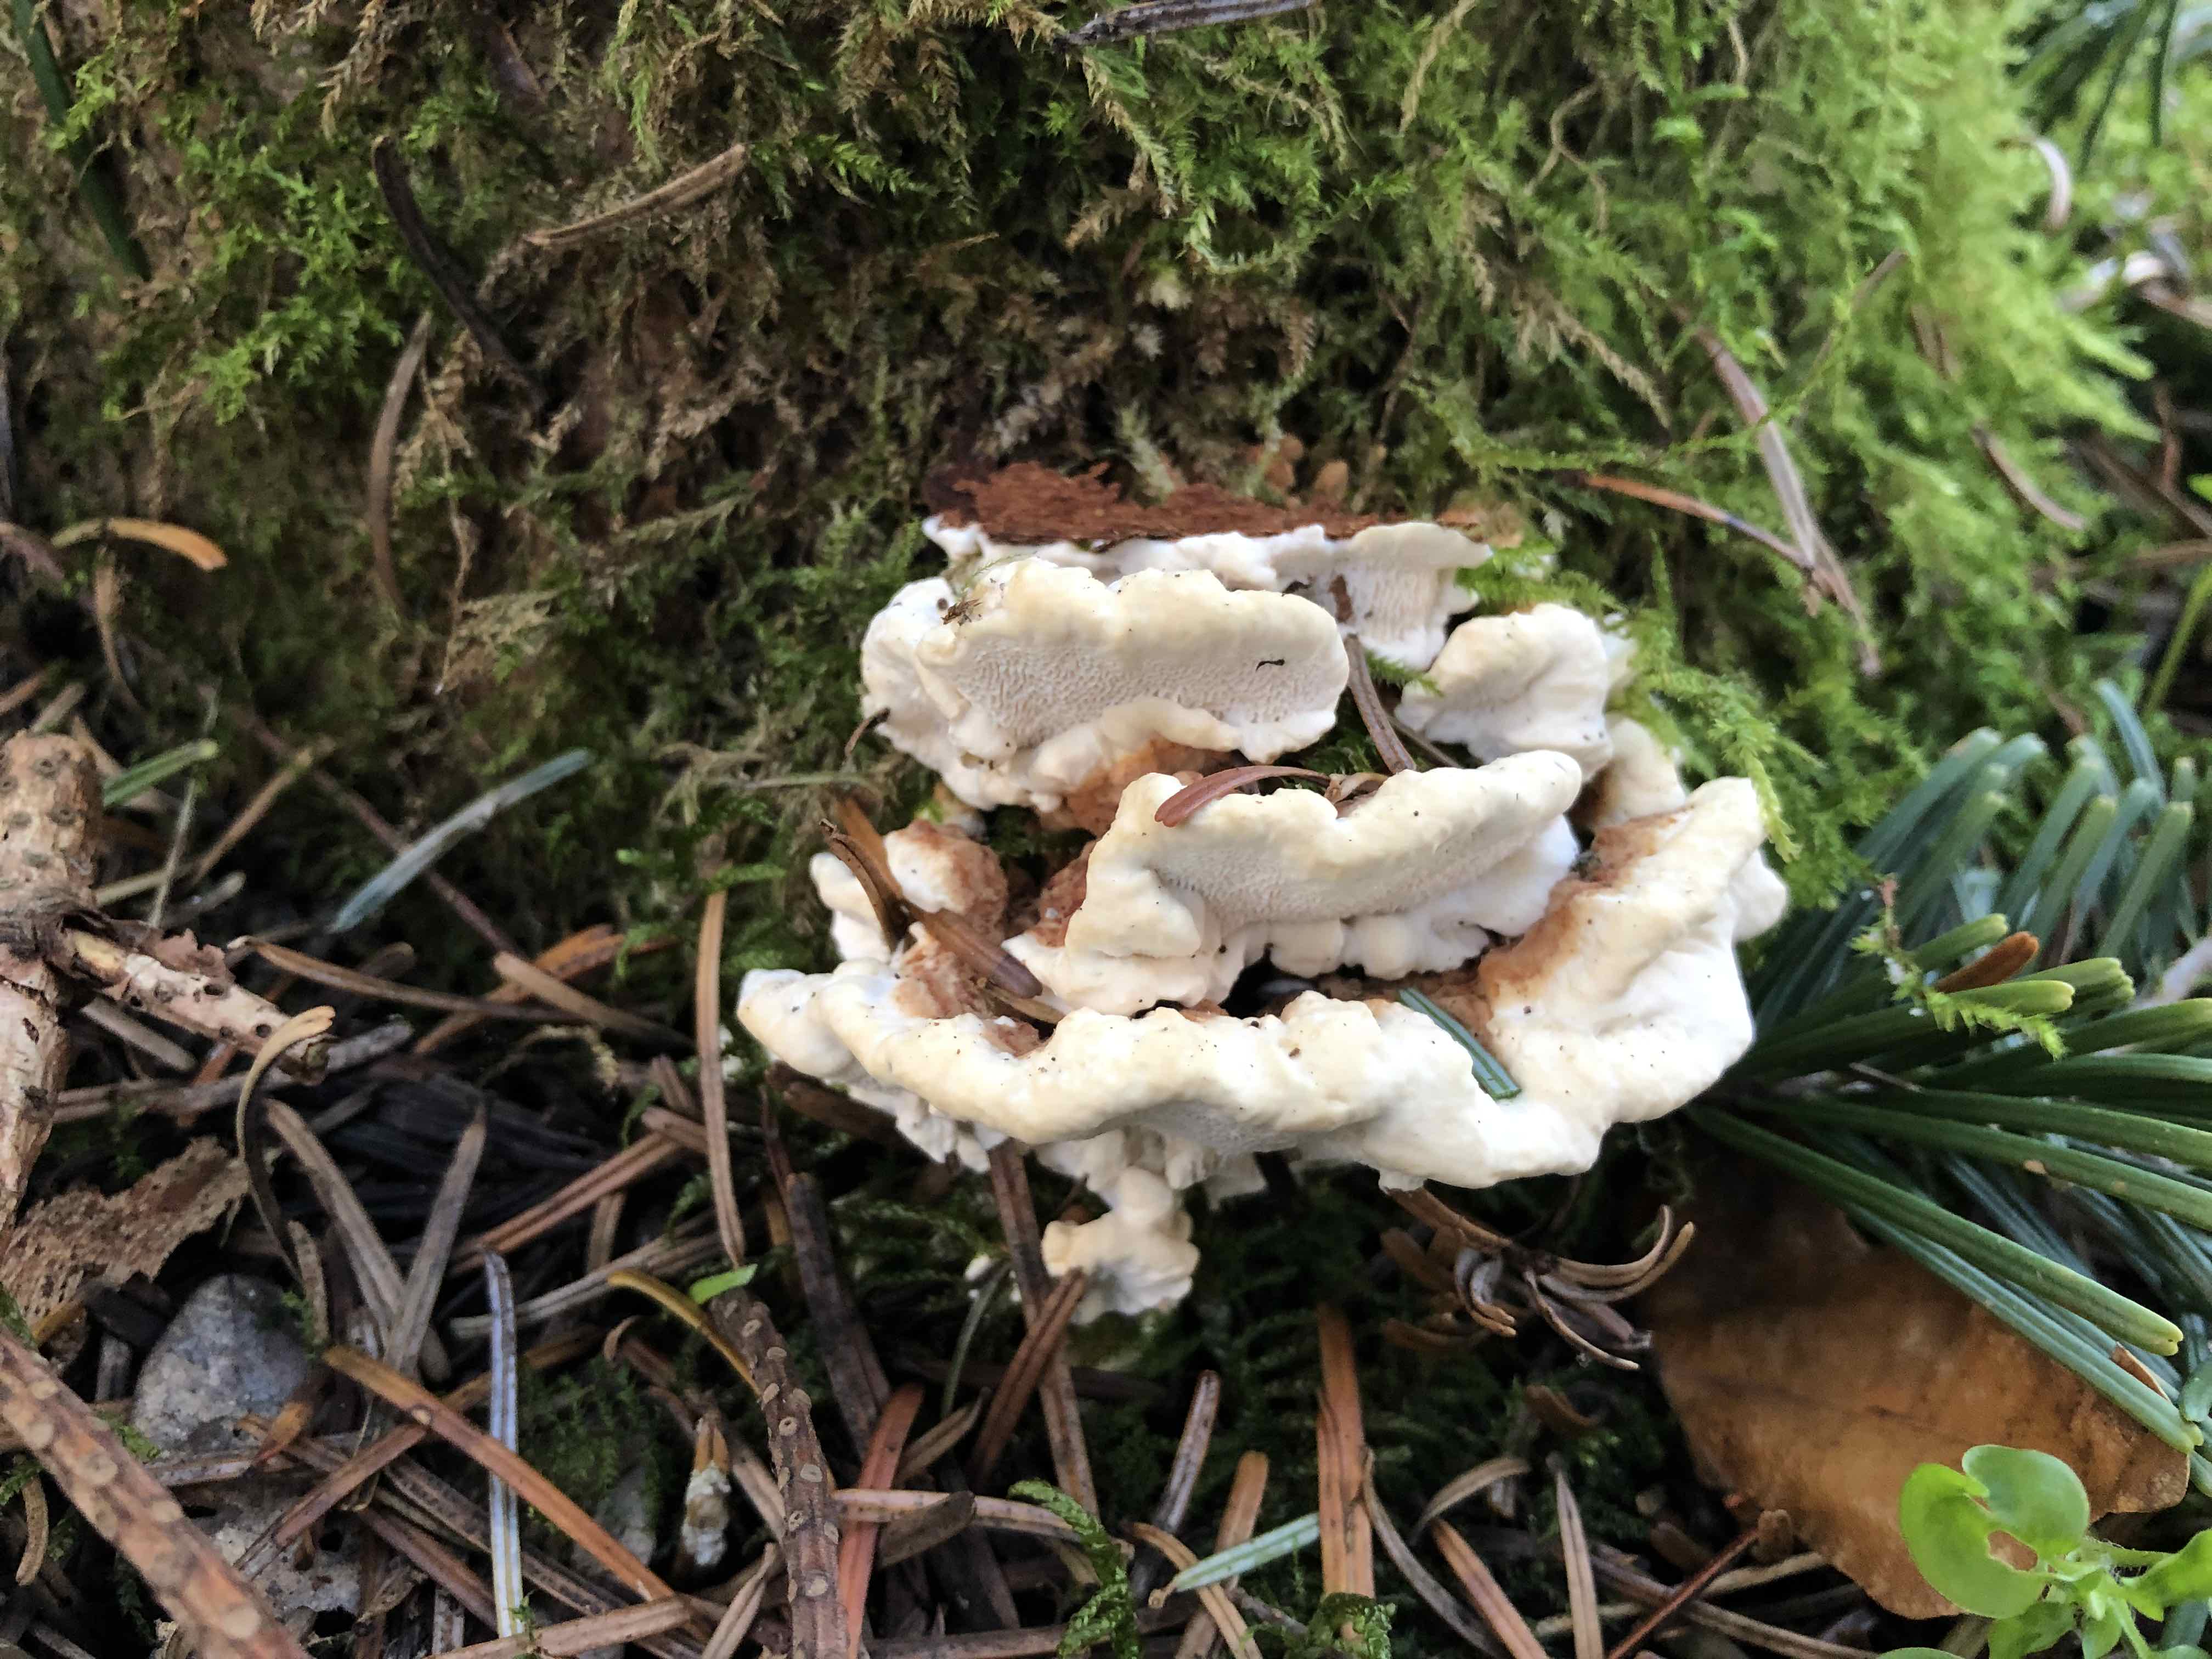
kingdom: Fungi
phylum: Basidiomycota
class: Agaricomycetes
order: Russulales
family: Bondarzewiaceae
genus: Heterobasidion
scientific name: Heterobasidion annosum
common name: almindelig rodfordærver
